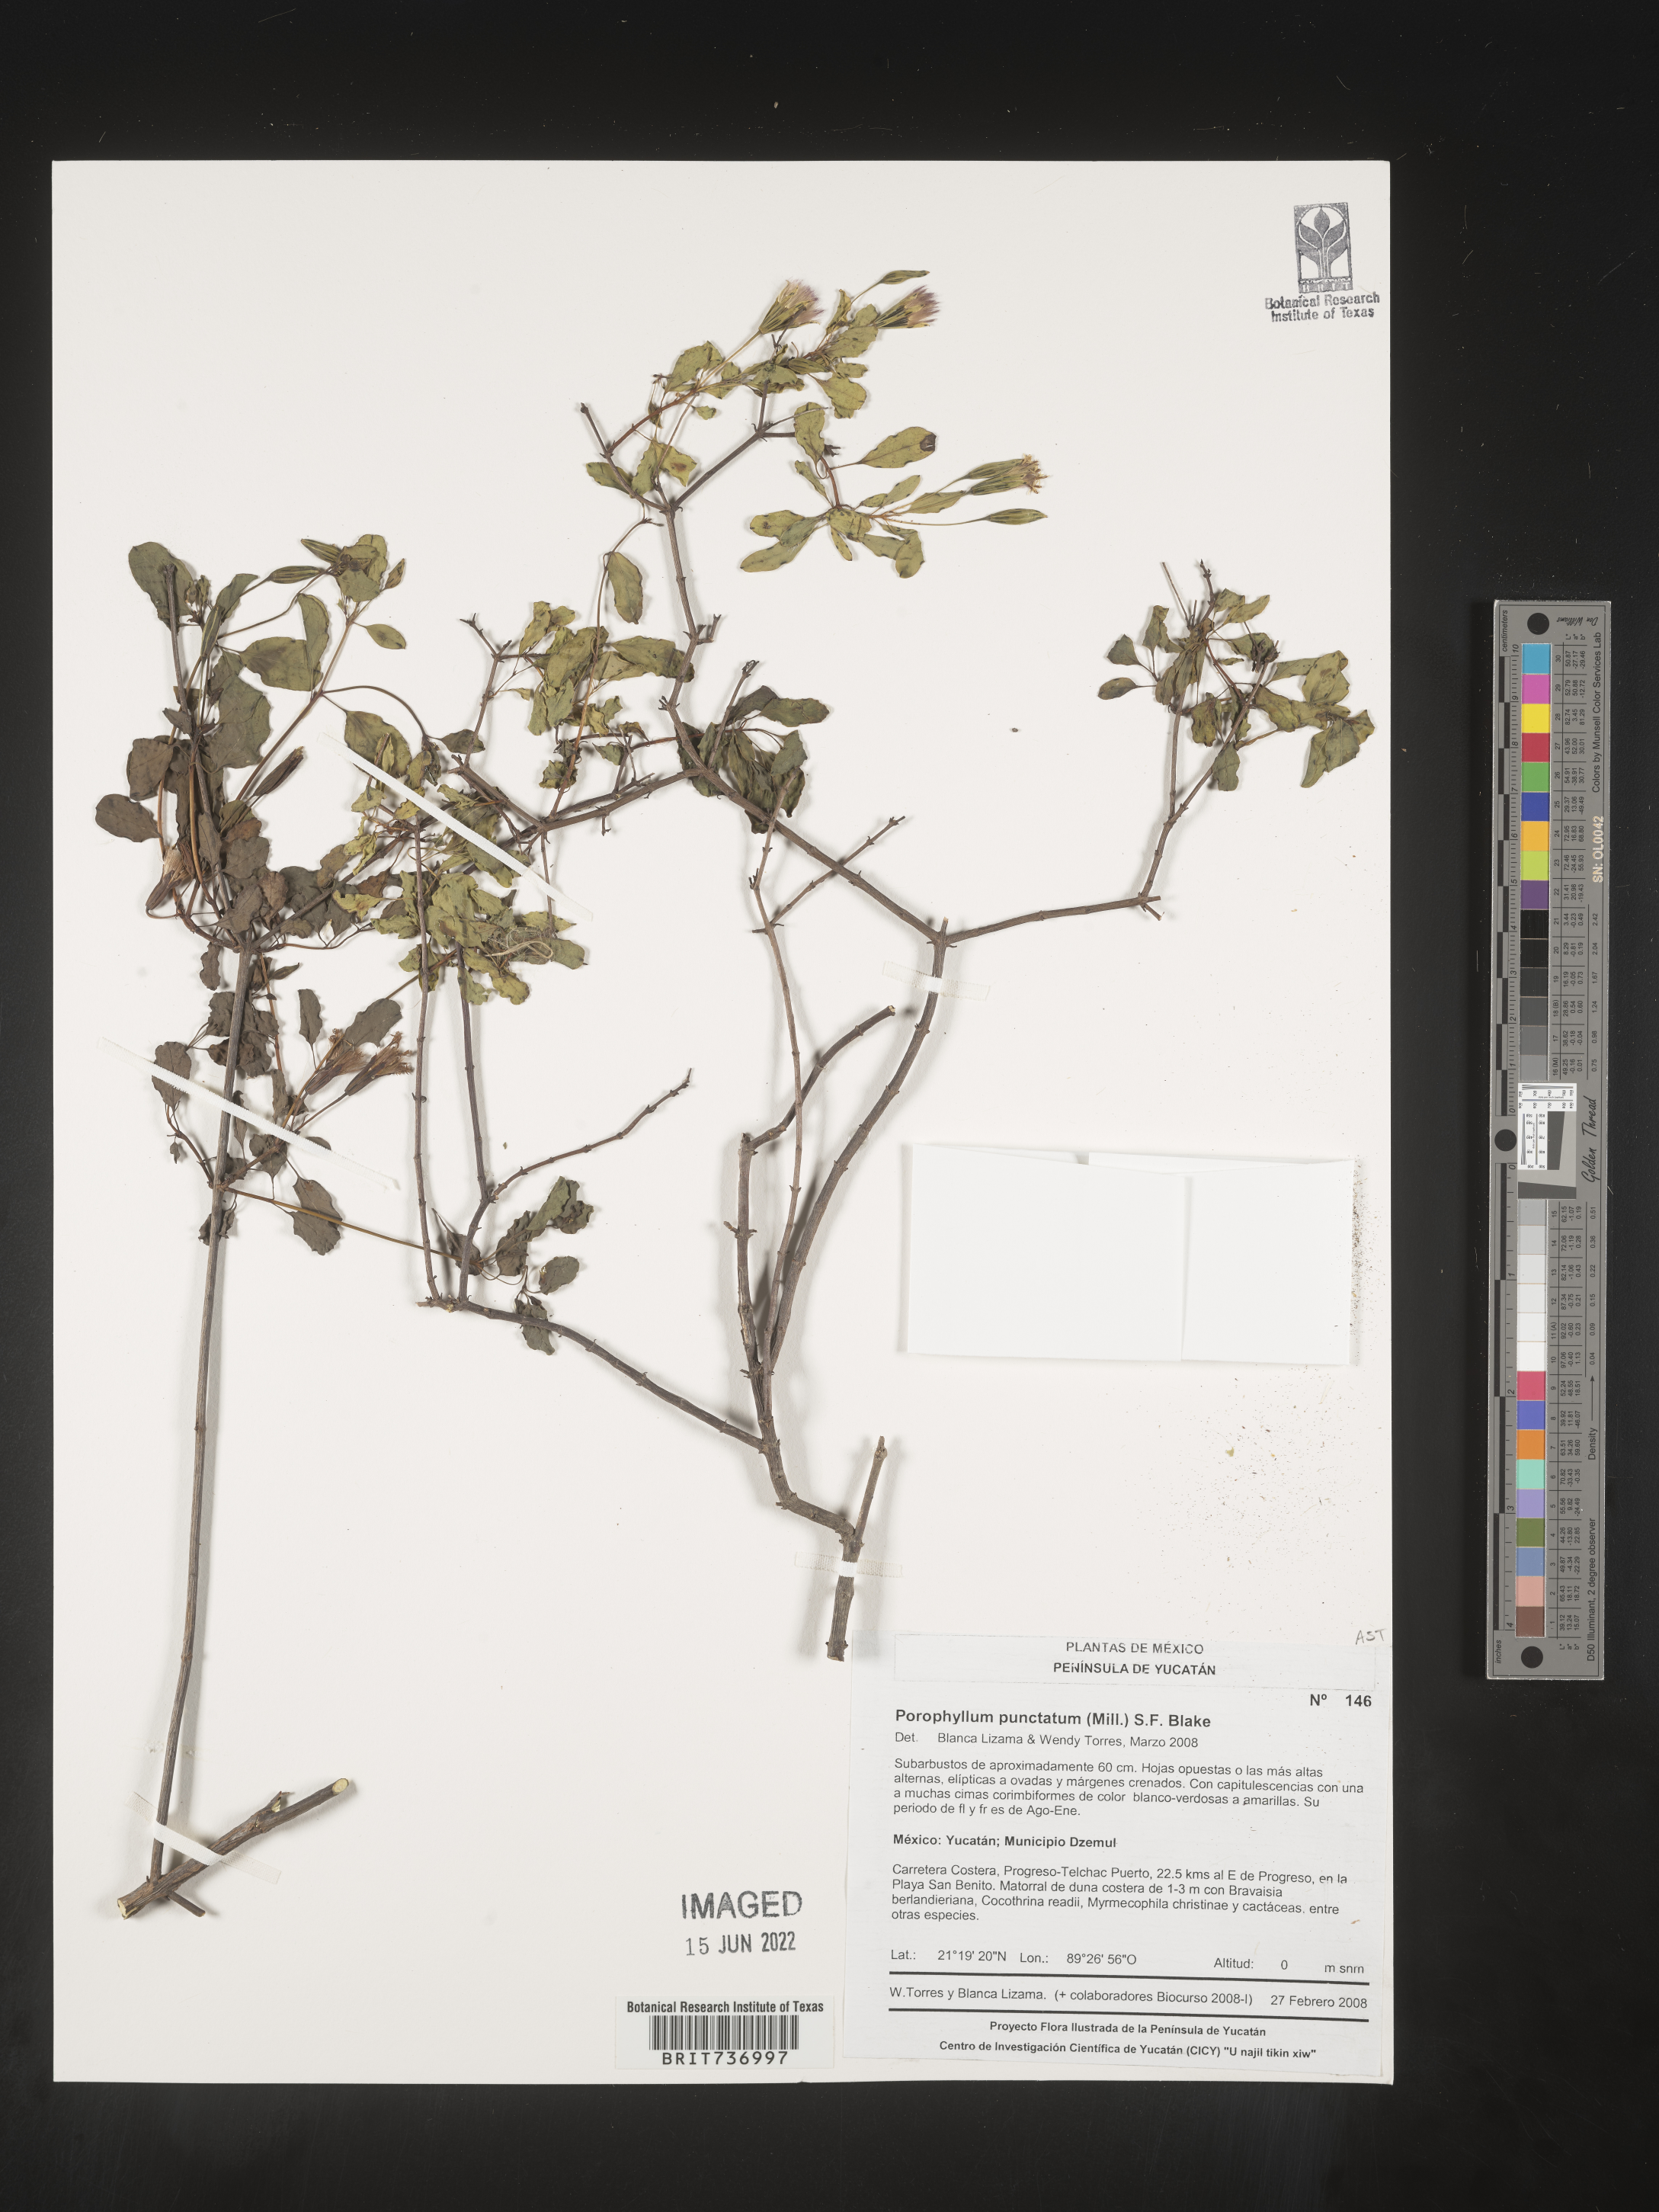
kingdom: Plantae
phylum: Tracheophyta
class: Magnoliopsida
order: Asterales
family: Asteraceae
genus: Porophyllum
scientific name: Porophyllum
